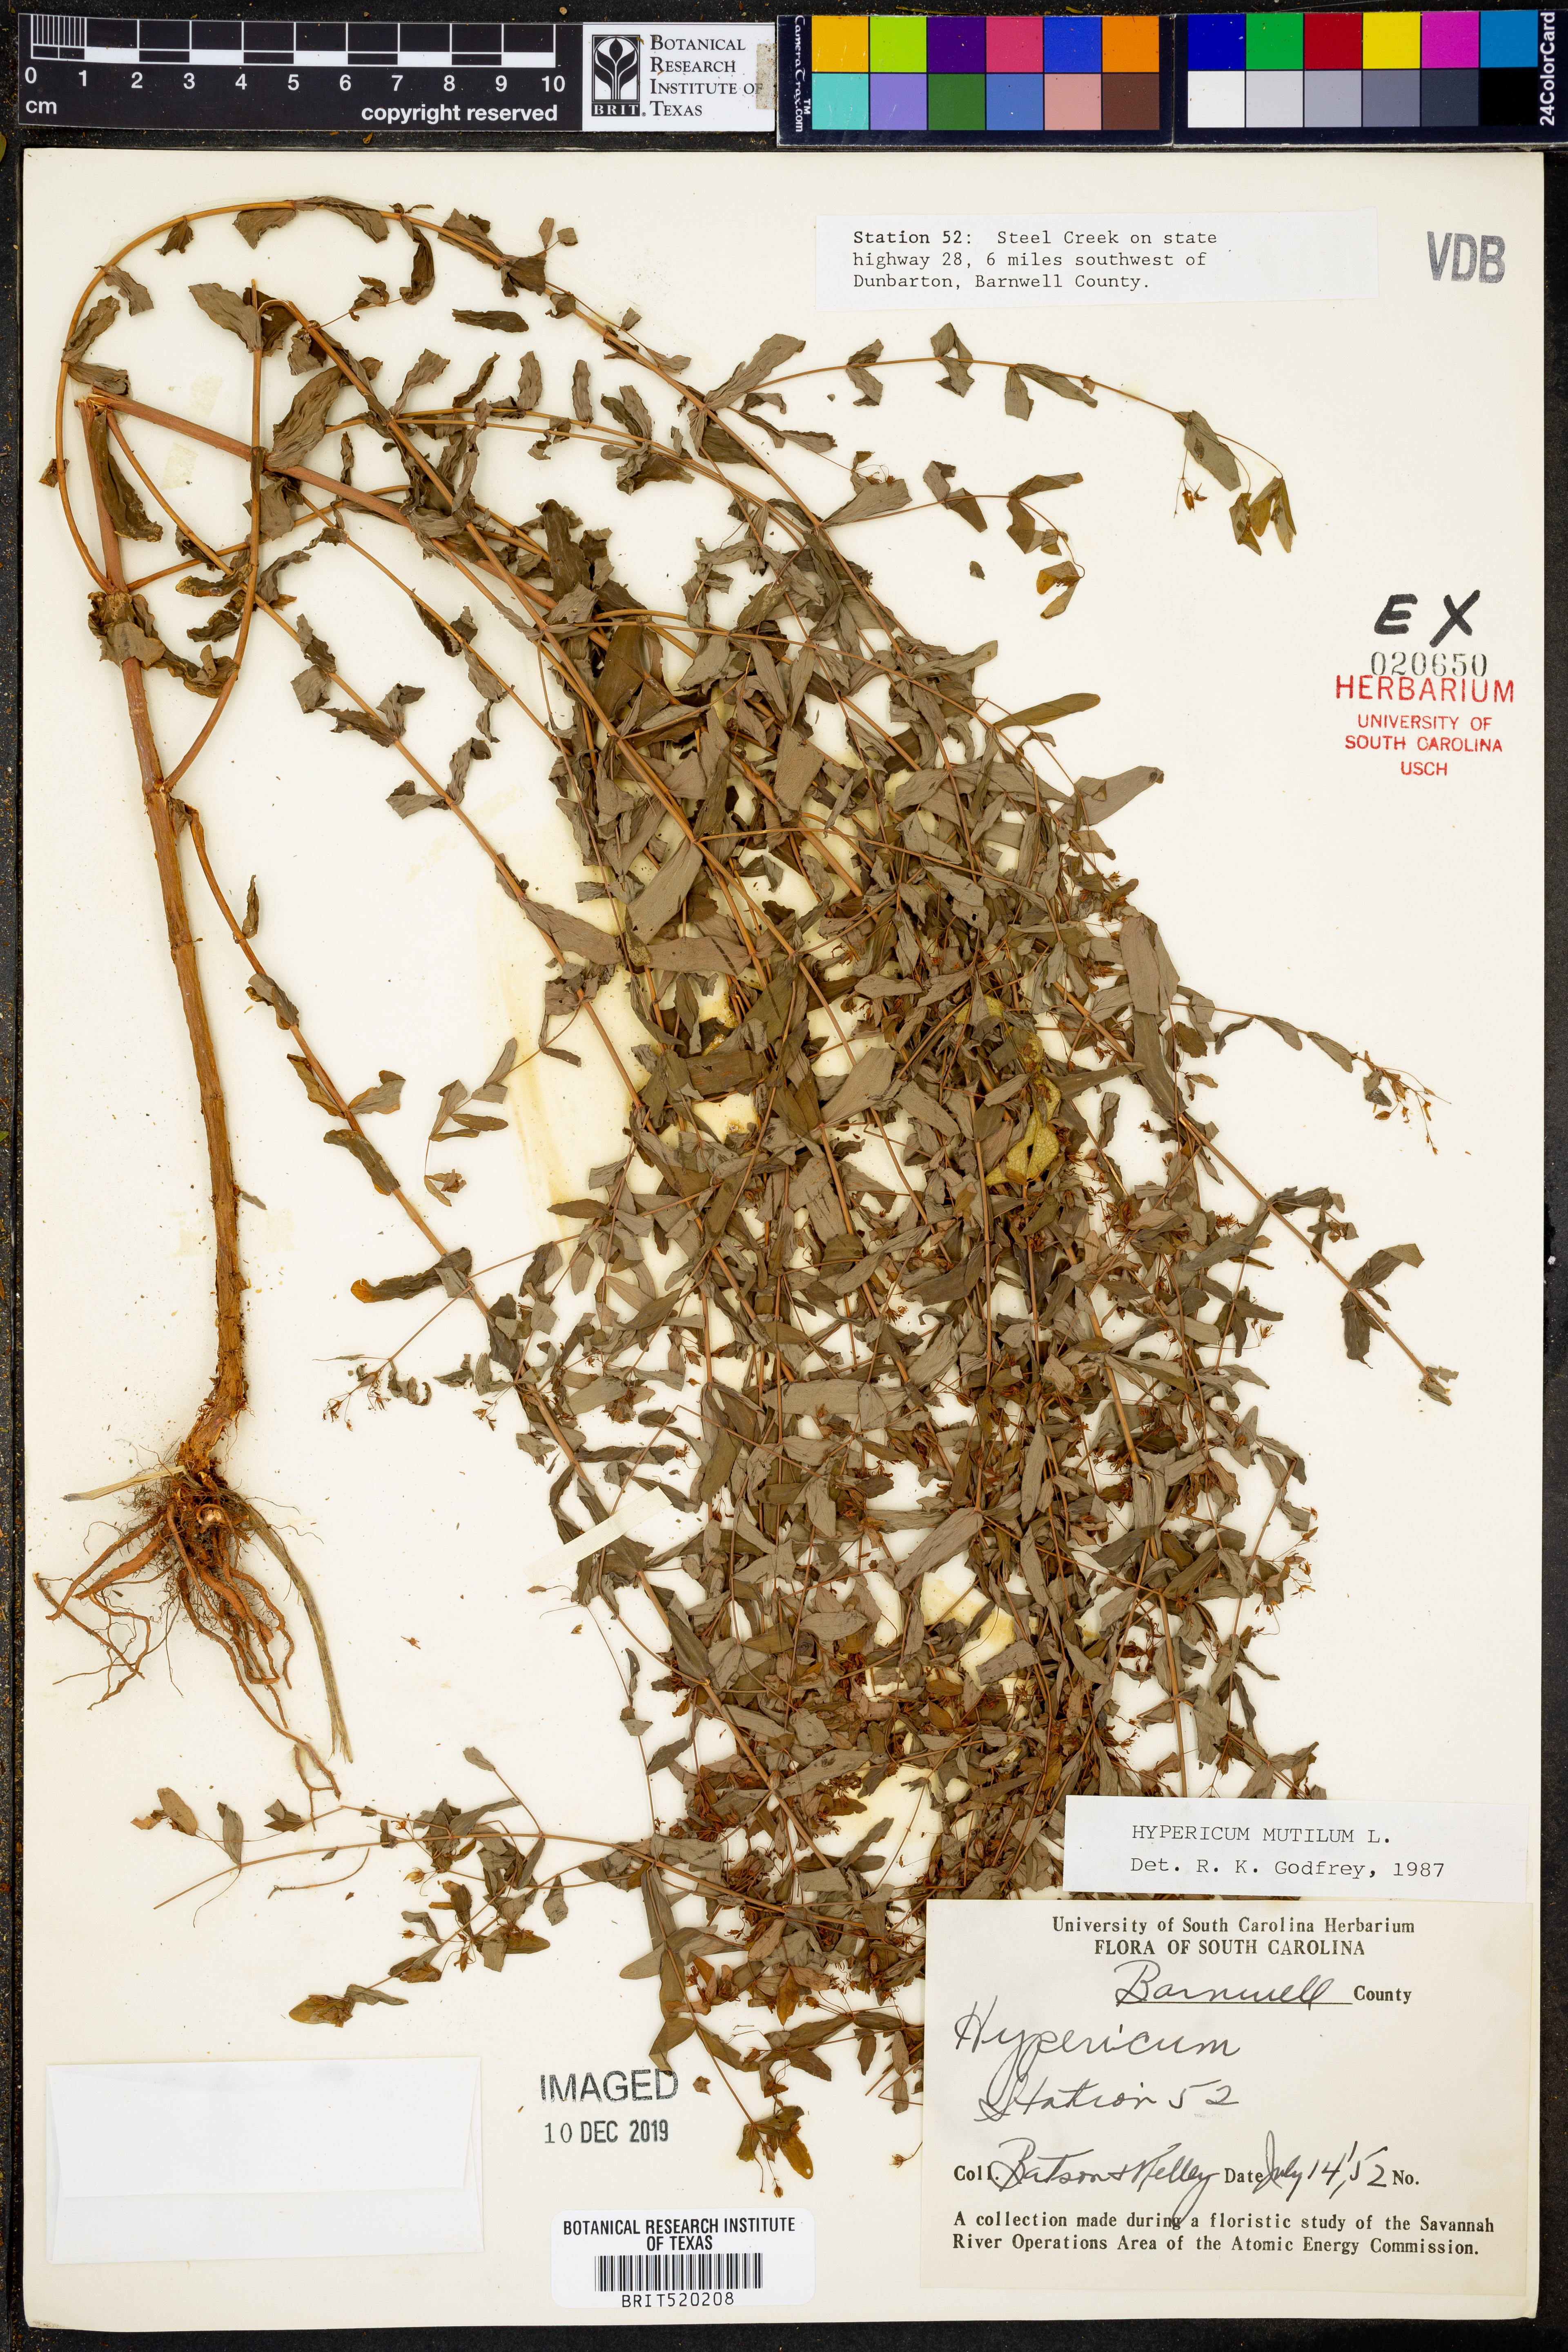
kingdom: Plantae
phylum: Tracheophyta
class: Magnoliopsida
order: Malpighiales
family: Hypericaceae
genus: Hypericum
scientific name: Hypericum mutilum
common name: Dwarf st. john's-wort
